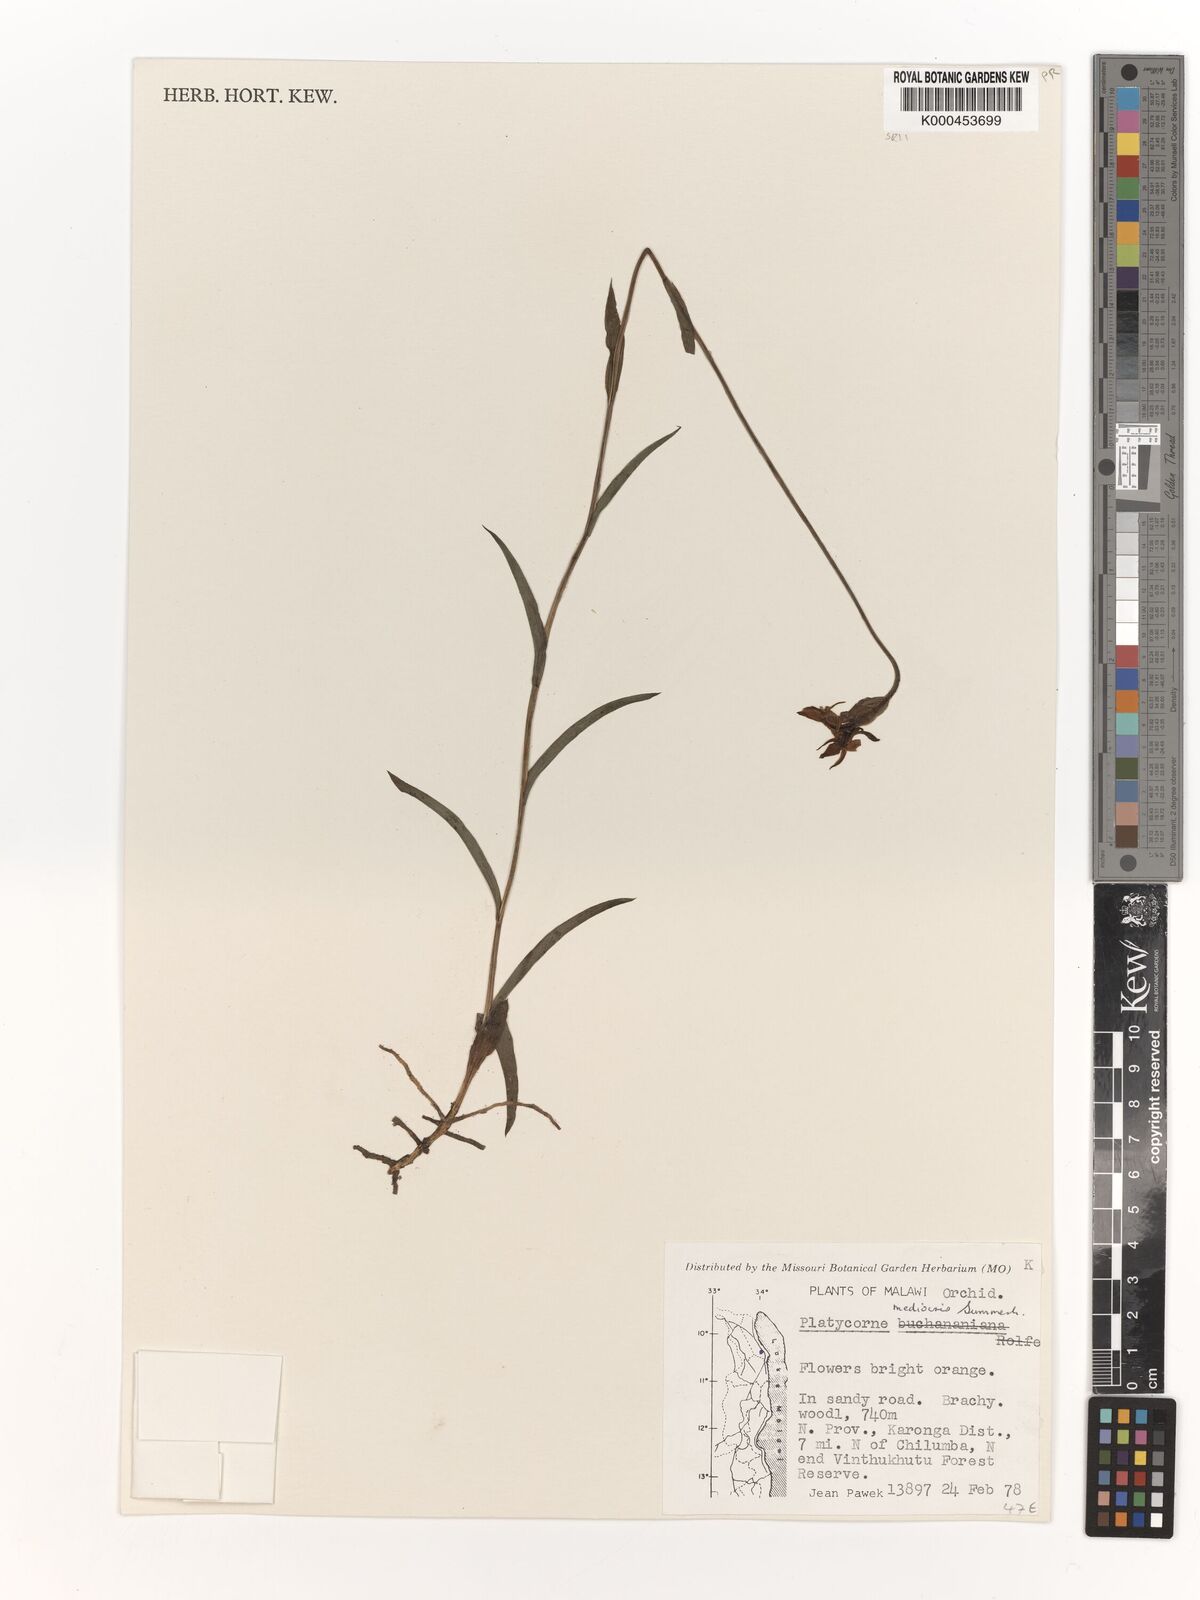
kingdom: Plantae
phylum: Tracheophyta
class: Liliopsida
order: Asparagales
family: Orchidaceae
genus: Platycoryne
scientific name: Platycoryne mediocris
